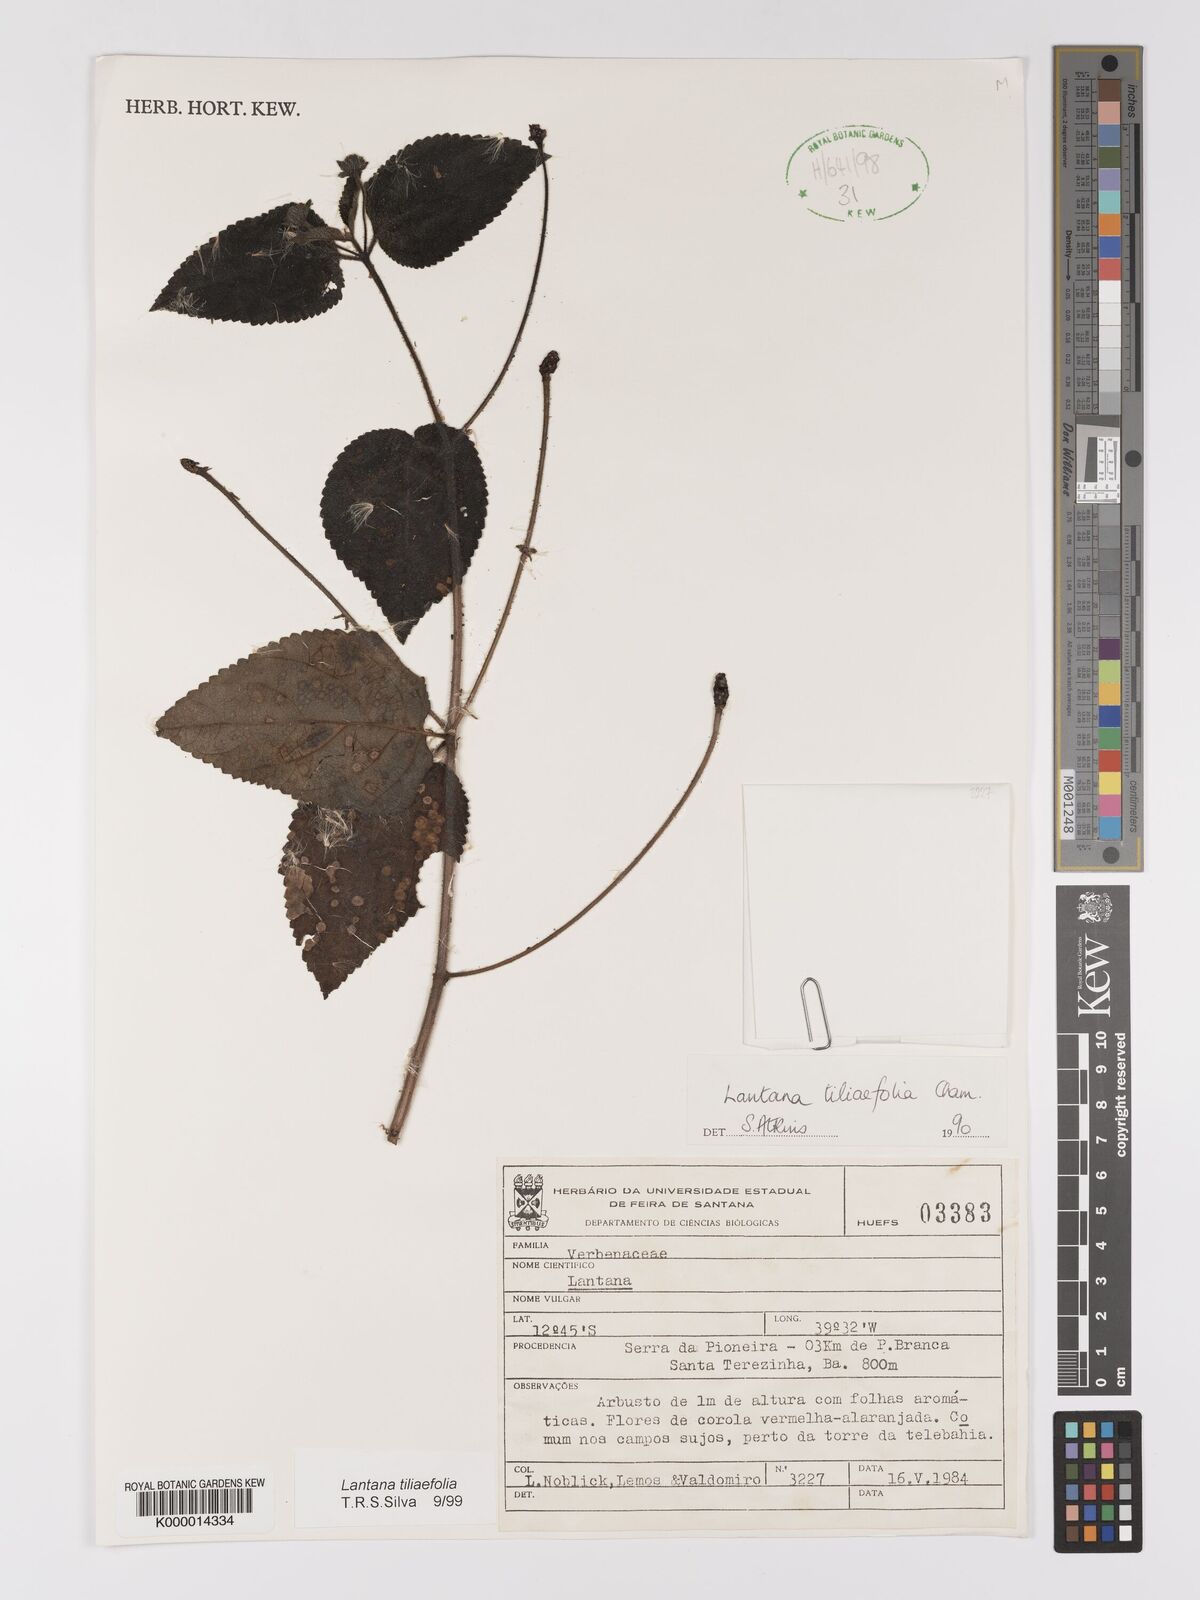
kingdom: Plantae
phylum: Tracheophyta
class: Magnoliopsida
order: Lamiales
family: Verbenaceae
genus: Lantana
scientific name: Lantana
